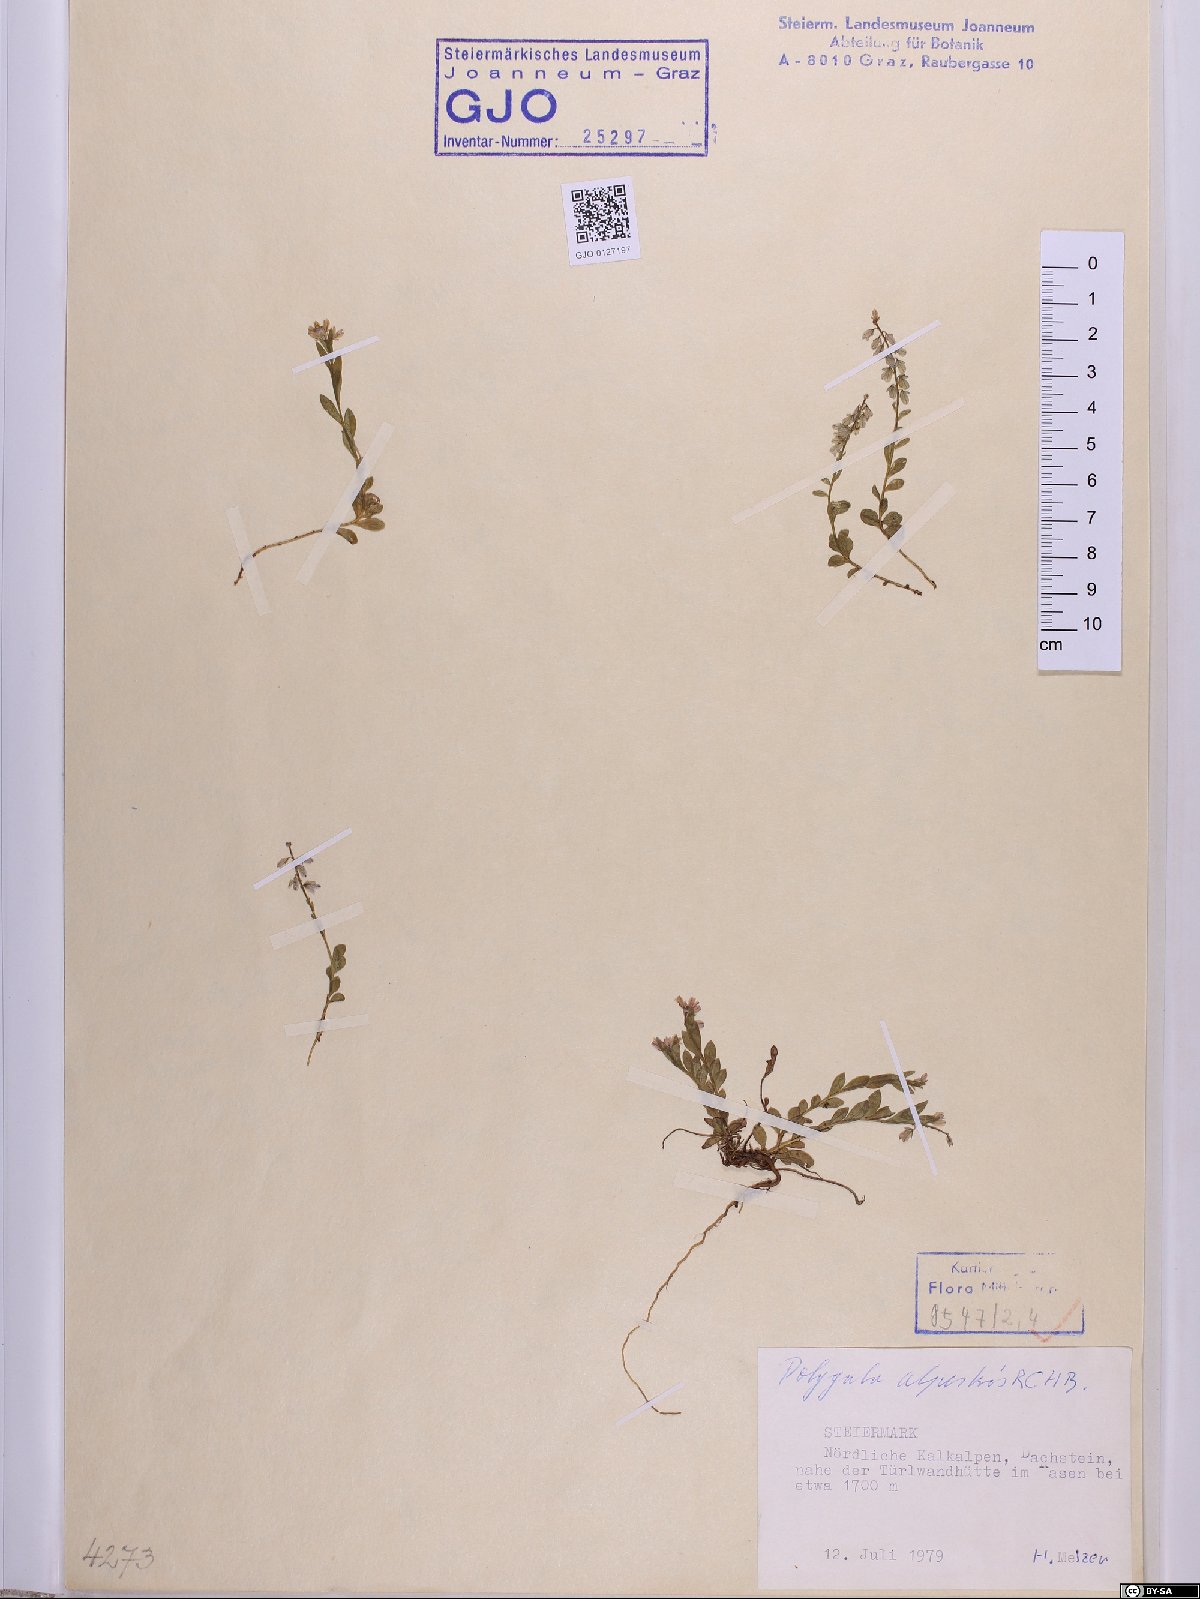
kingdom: Plantae
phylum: Tracheophyta
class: Magnoliopsida
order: Fabales
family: Polygalaceae
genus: Polygala
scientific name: Polygala alpestris
